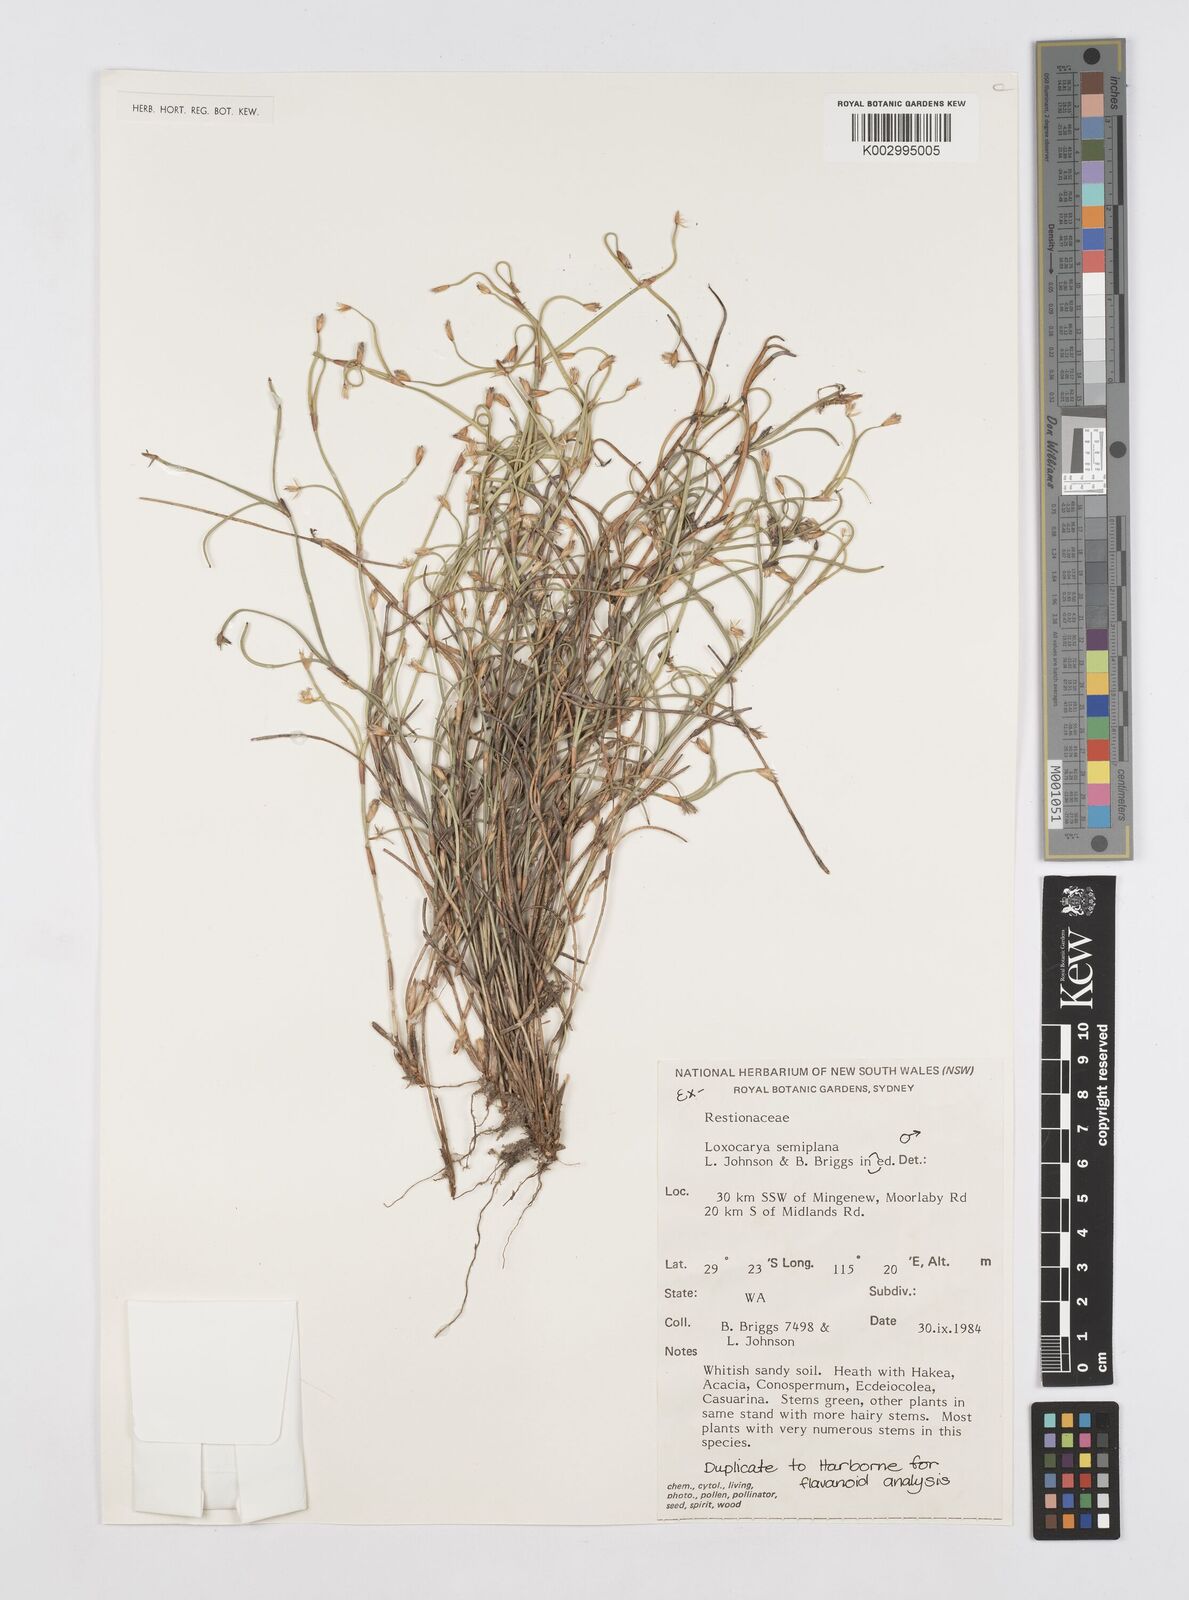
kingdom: Plantae
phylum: Tracheophyta
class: Liliopsida
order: Poales
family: Restionaceae
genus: Desmocladus
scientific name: Desmocladus semiplanus
